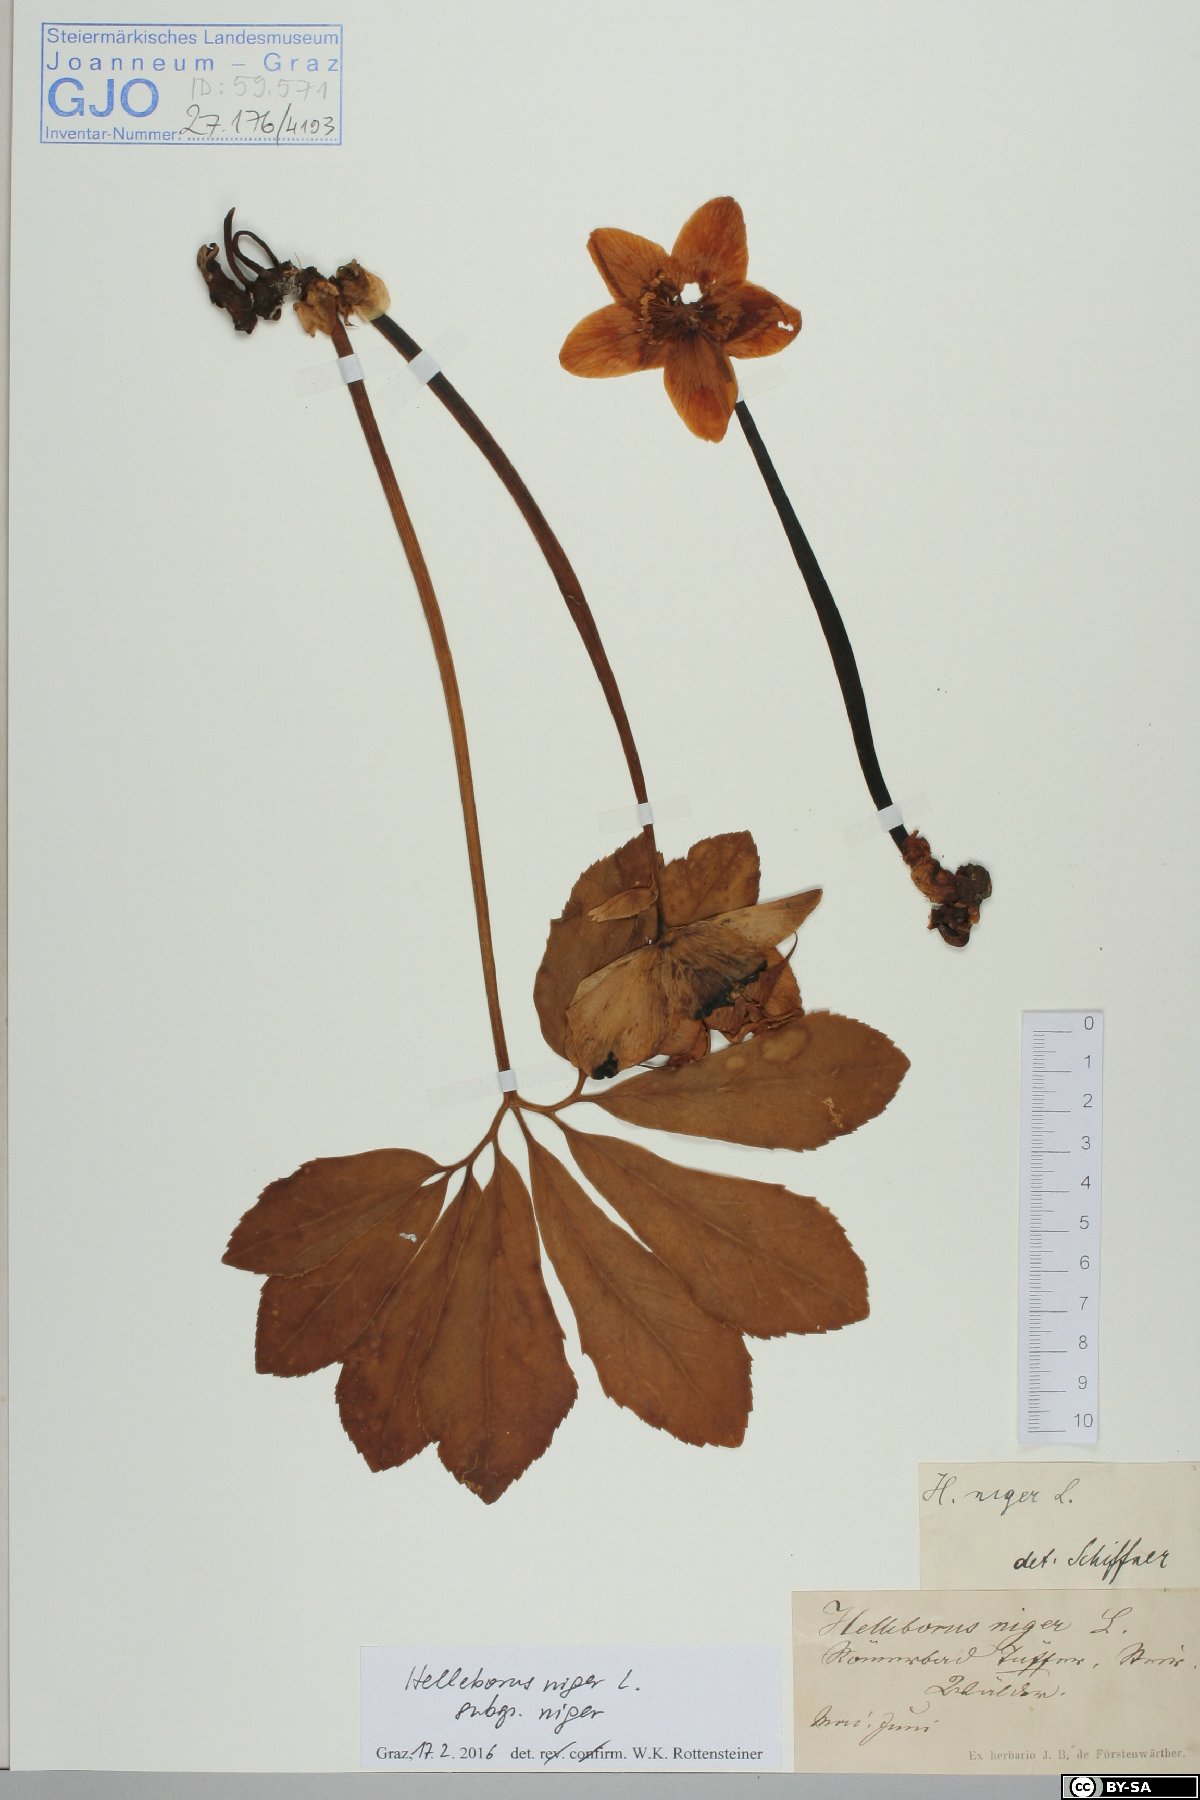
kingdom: Plantae
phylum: Tracheophyta
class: Magnoliopsida
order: Ranunculales
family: Ranunculaceae
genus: Helleborus
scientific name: Helleborus niger
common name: Black hellebore
